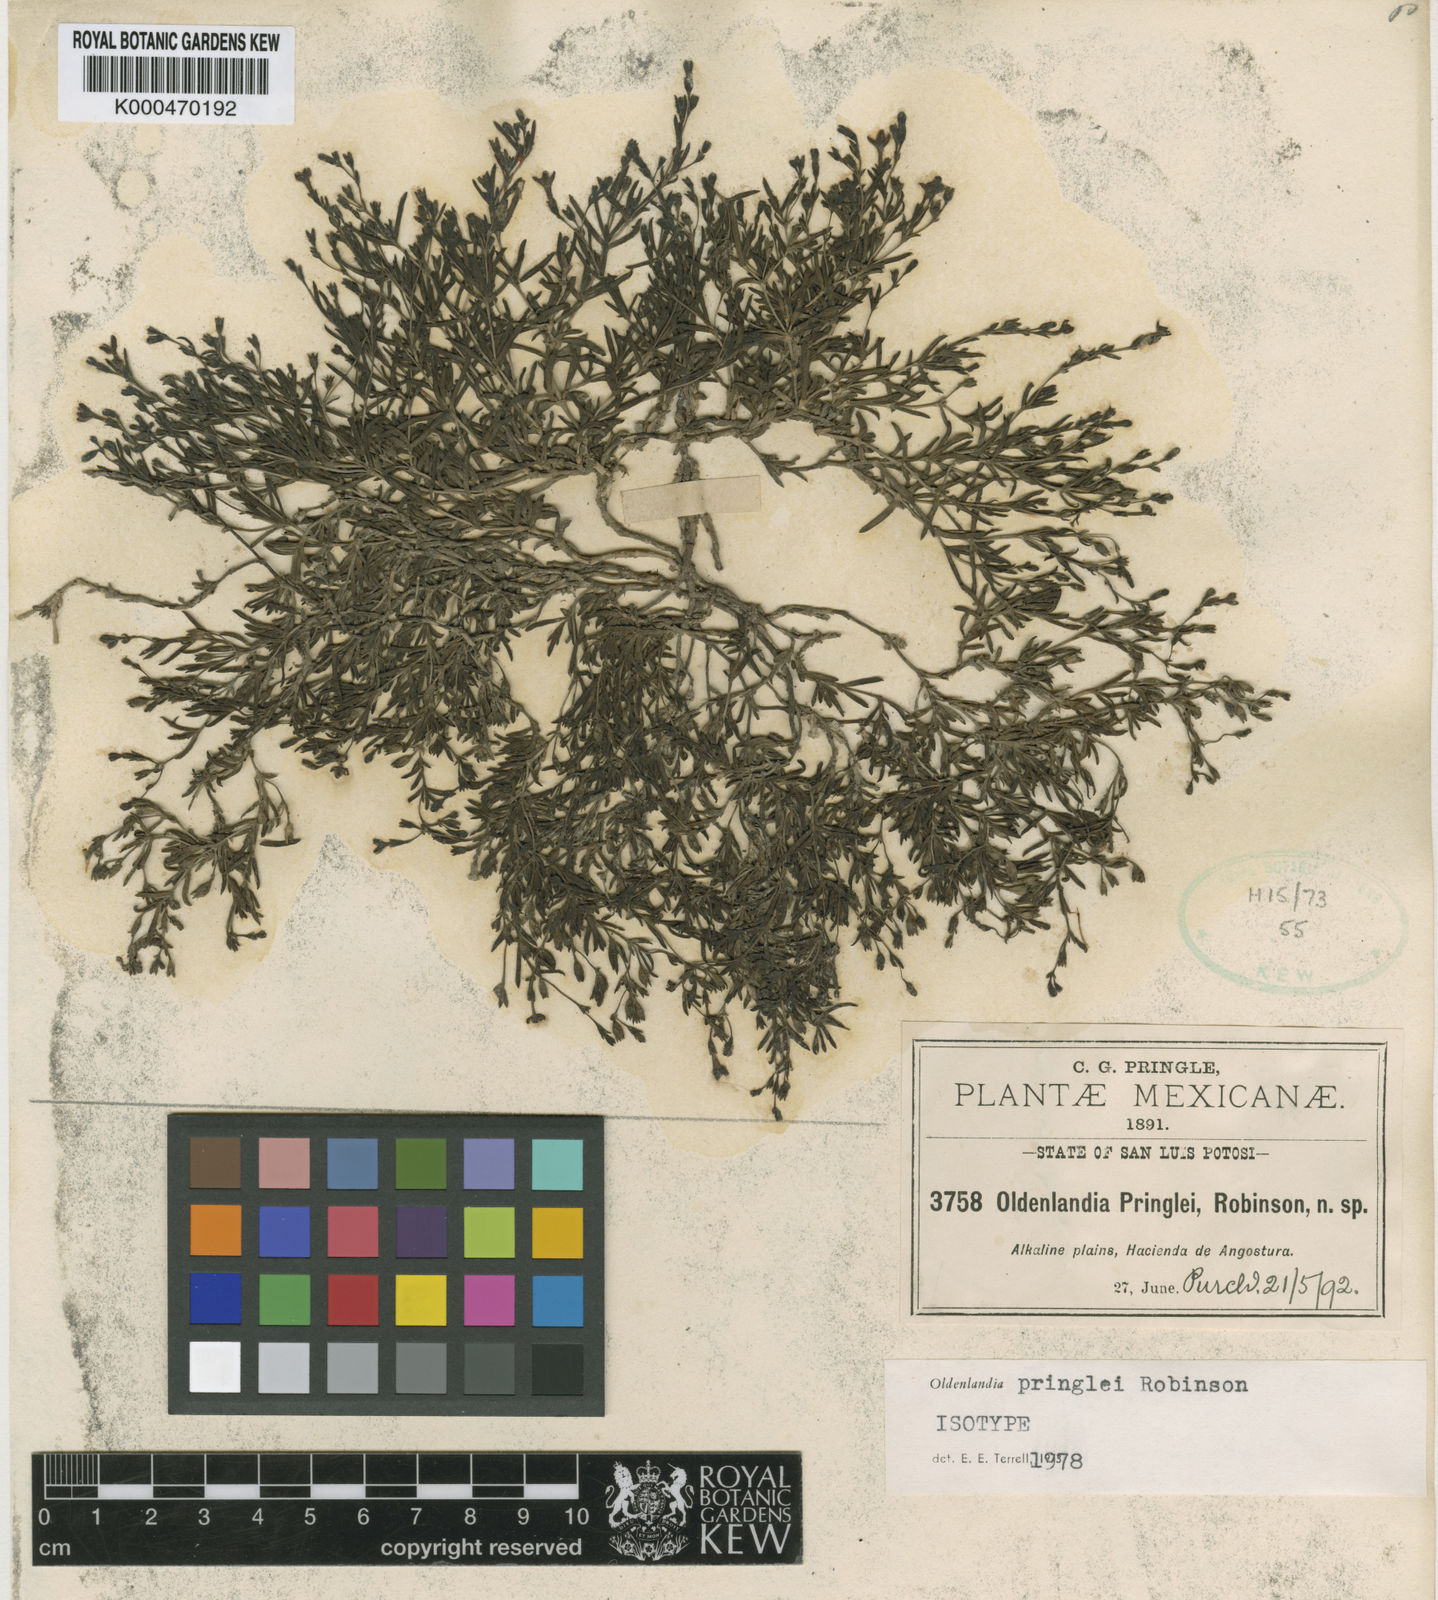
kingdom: Plantae
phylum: Tracheophyta
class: Magnoliopsida
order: Gentianales
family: Rubiaceae
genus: Oldenlandia
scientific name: Oldenlandia pringlei
